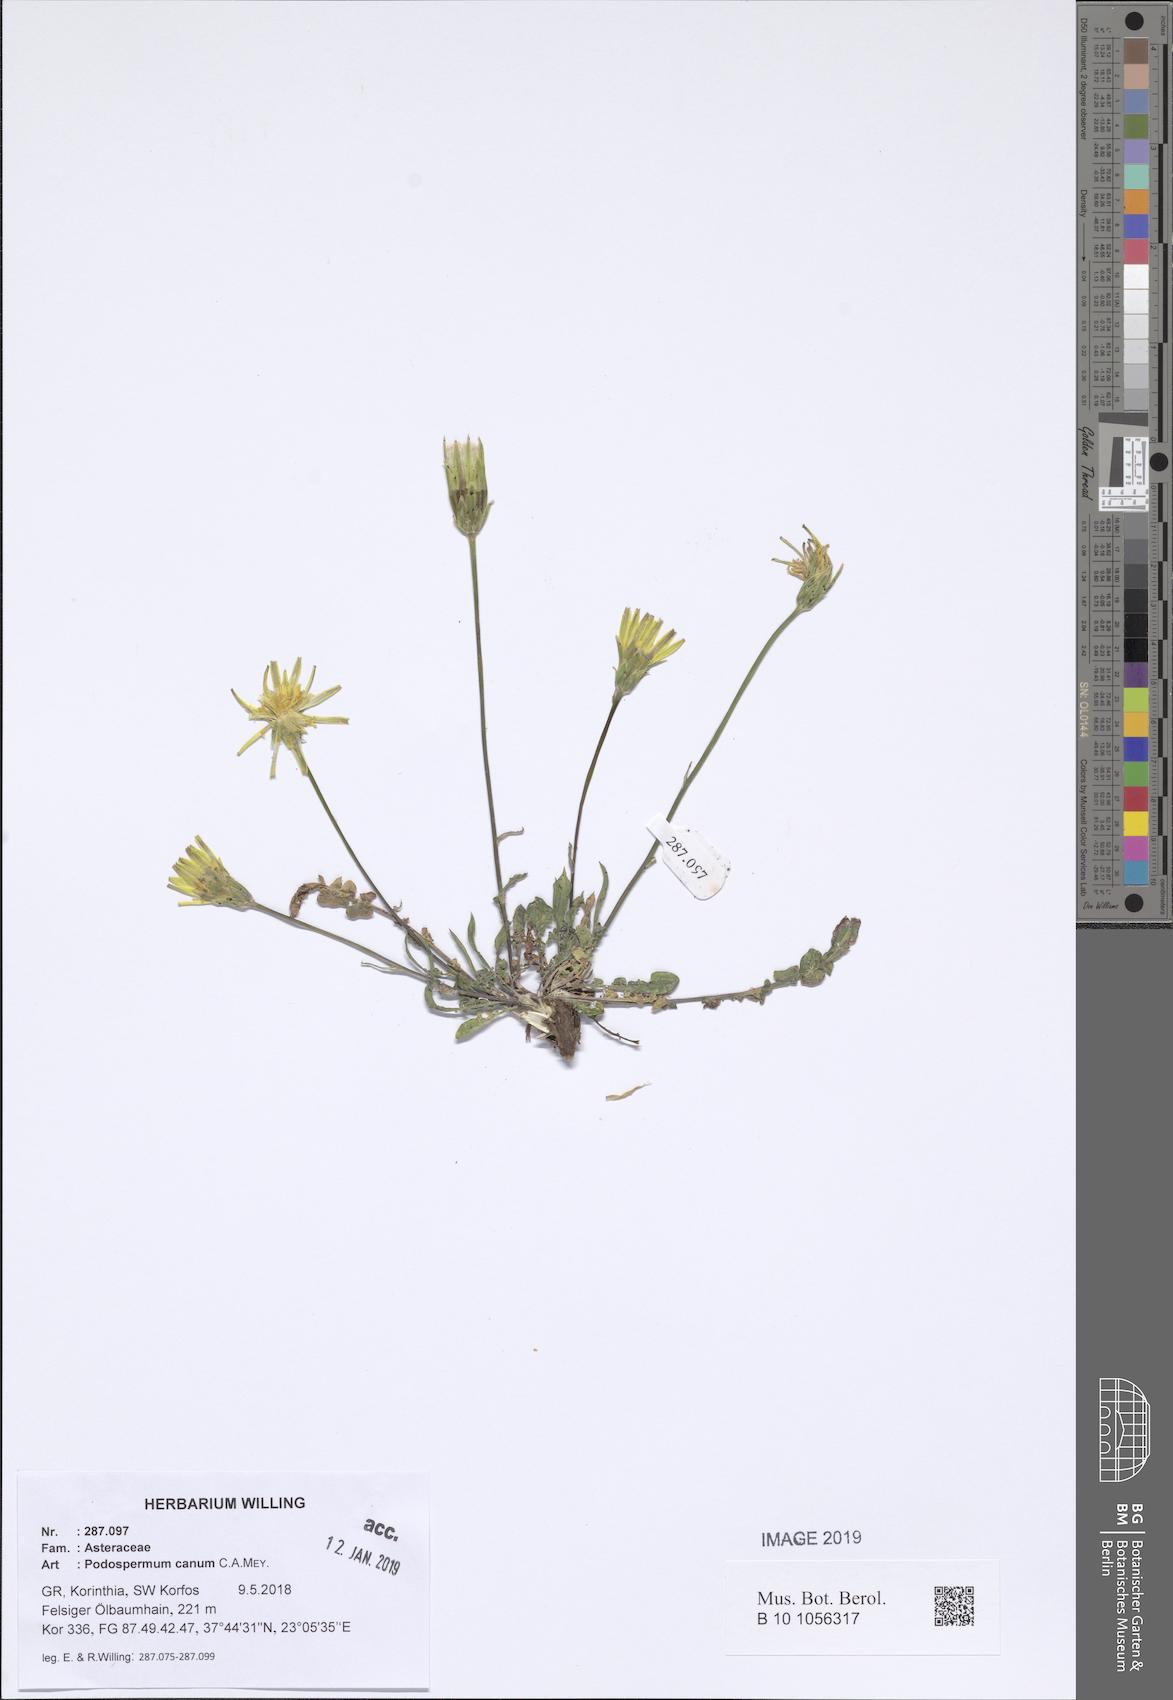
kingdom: Plantae
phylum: Tracheophyta
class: Magnoliopsida
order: Asterales
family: Asteraceae
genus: Scorzonera
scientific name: Scorzonera cana
